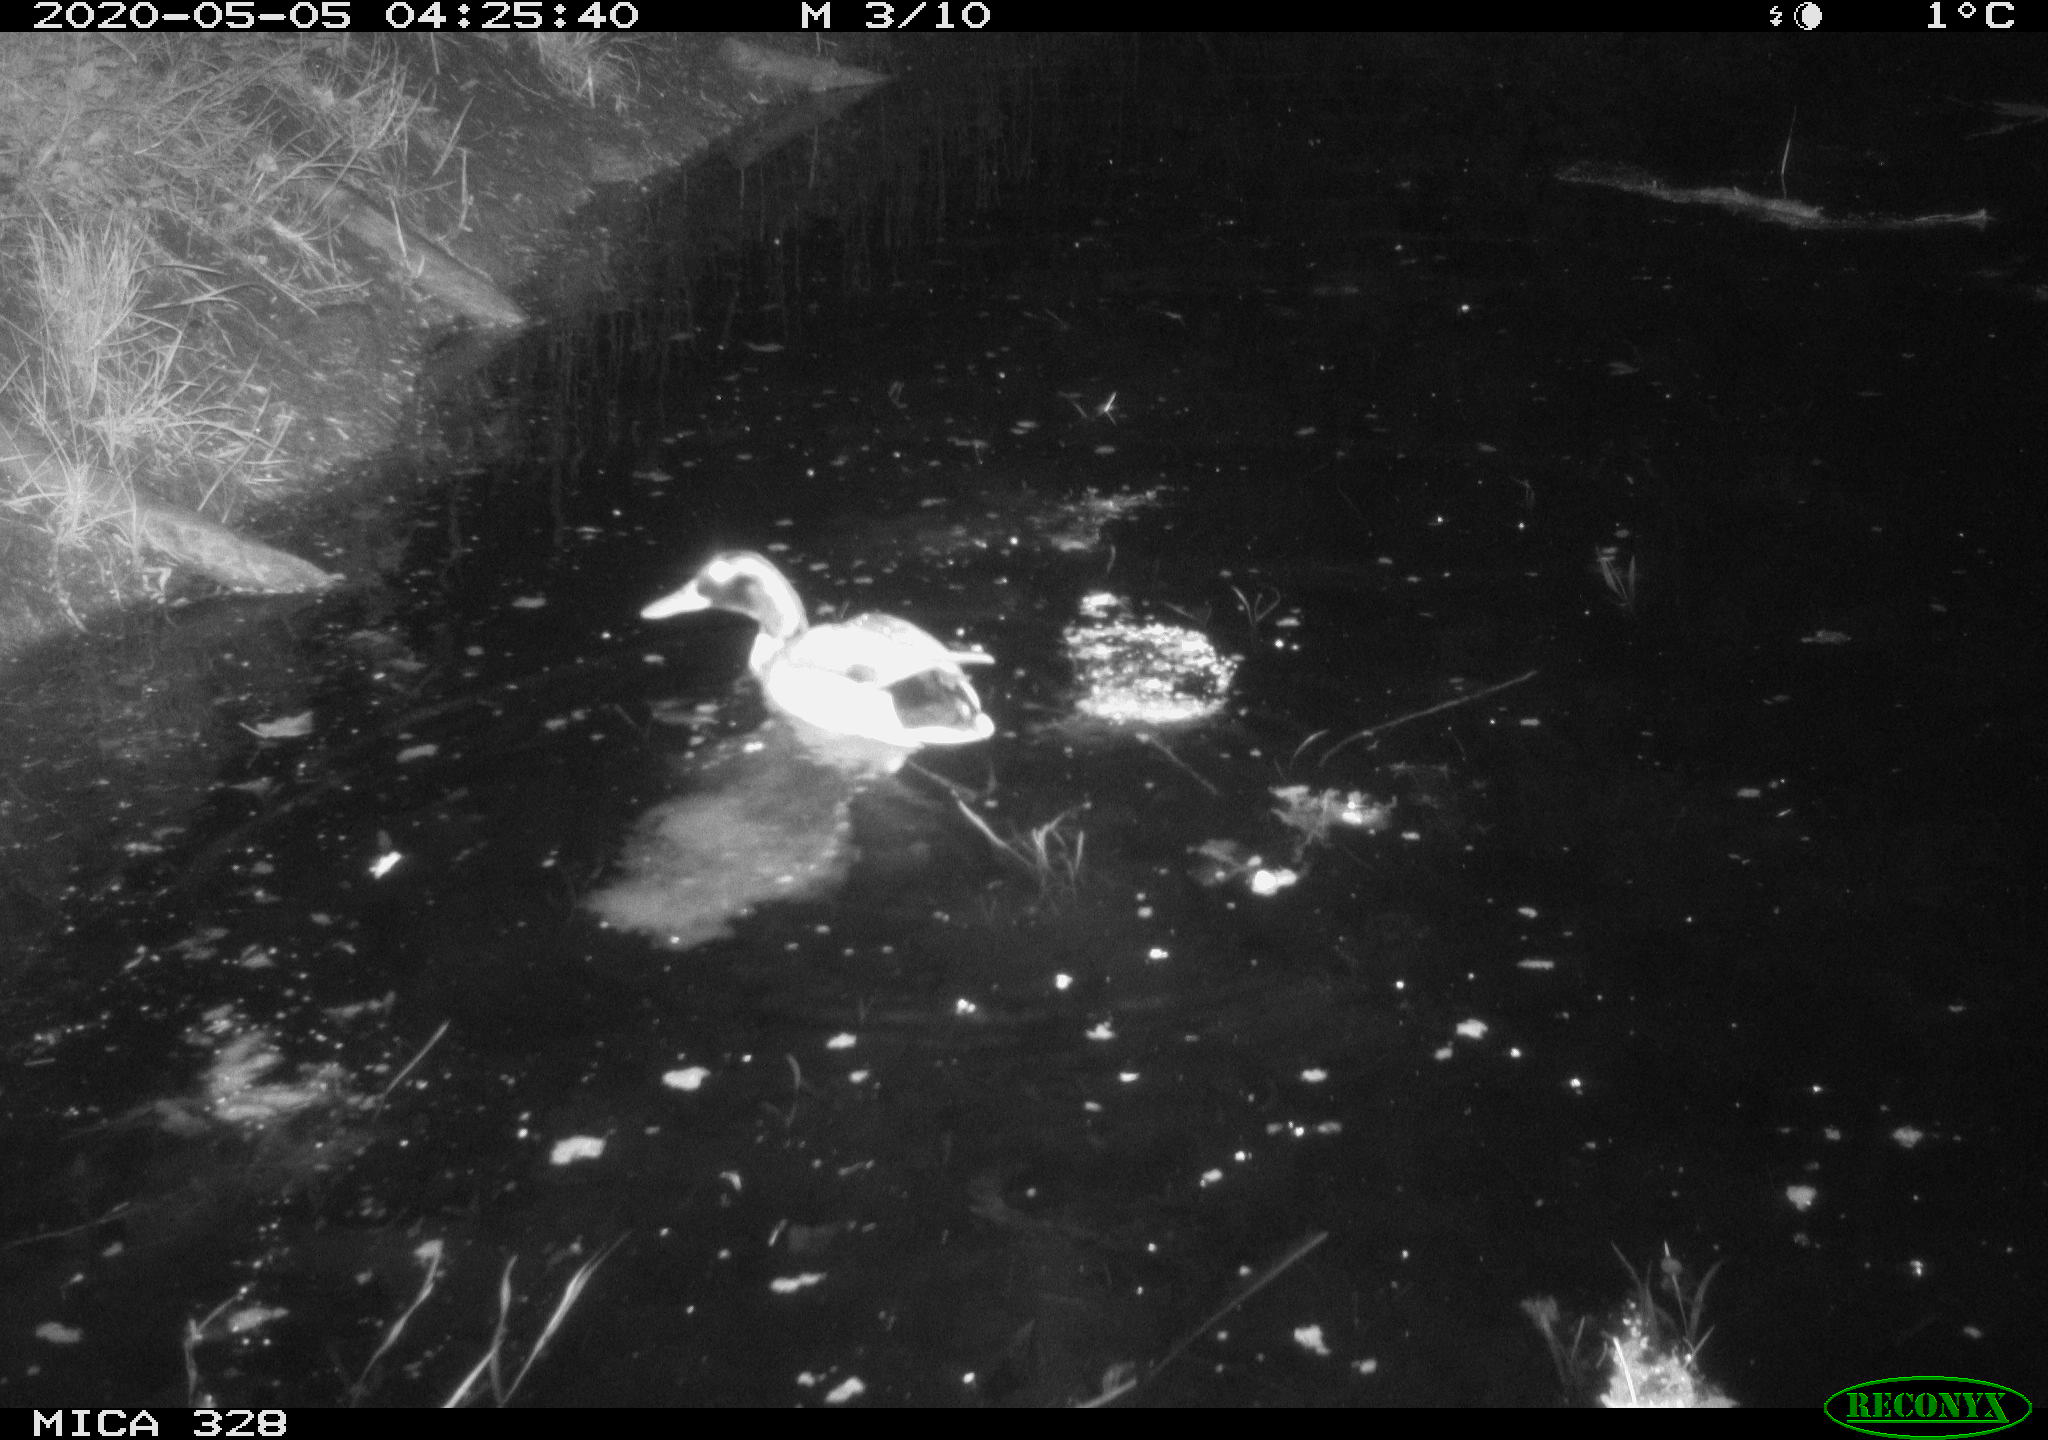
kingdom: Animalia
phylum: Chordata
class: Aves
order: Anseriformes
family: Anatidae
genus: Anas
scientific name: Anas platyrhynchos
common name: Mallard
